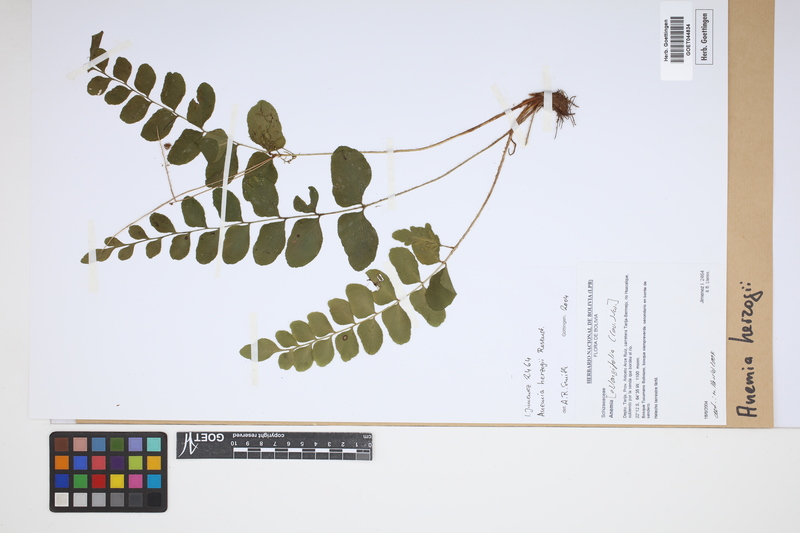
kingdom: Plantae
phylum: Tracheophyta
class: Polypodiopsida
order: Schizaeales
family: Anemiaceae
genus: Anemia
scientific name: Anemia herzogii
